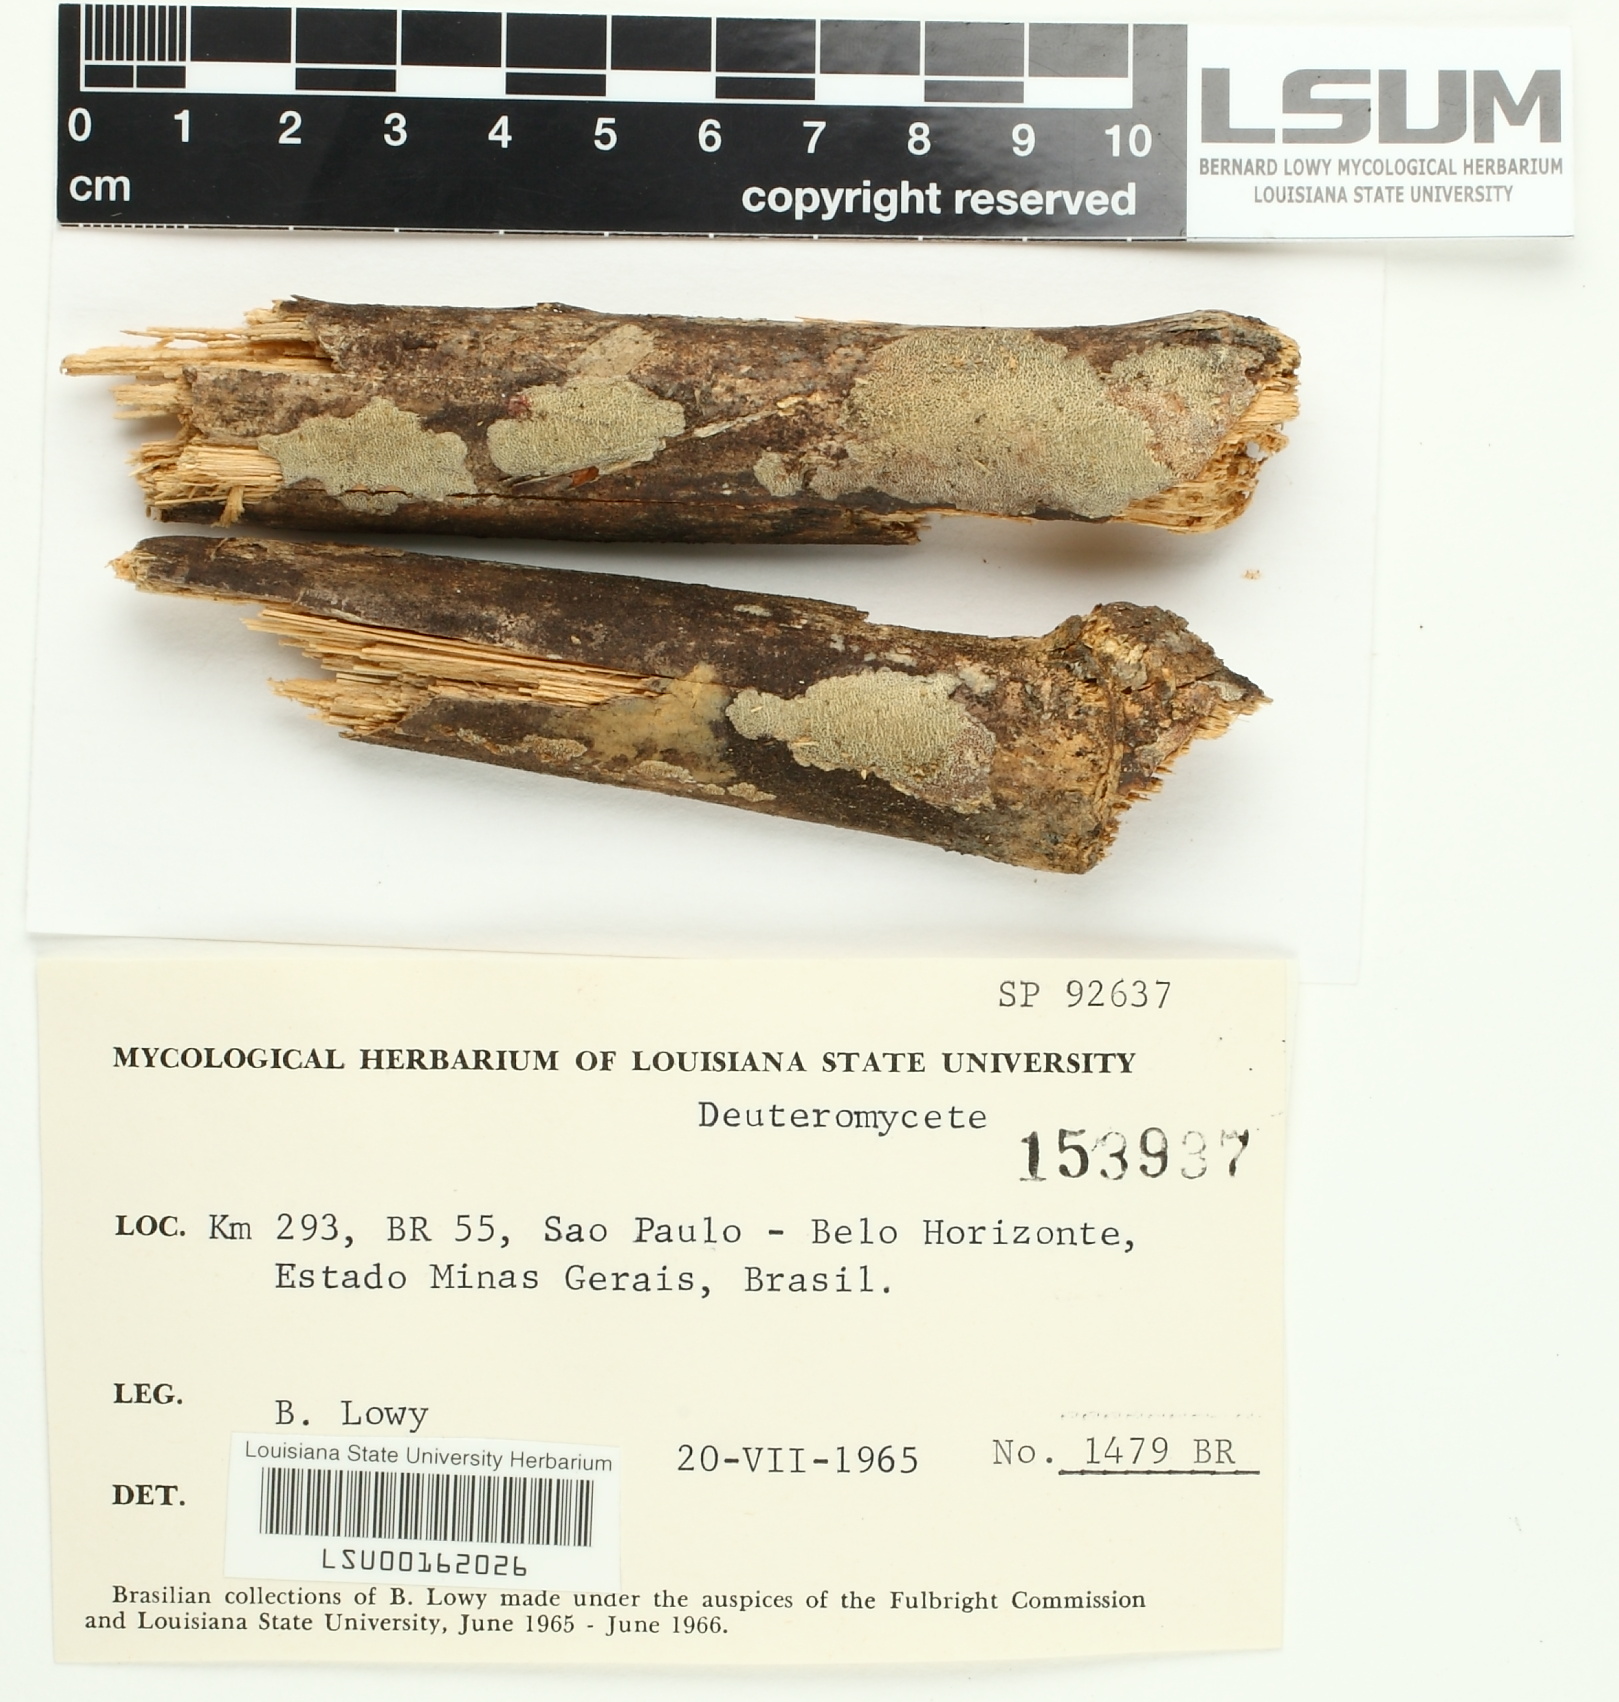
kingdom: Fungi
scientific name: Fungi
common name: Fungi
